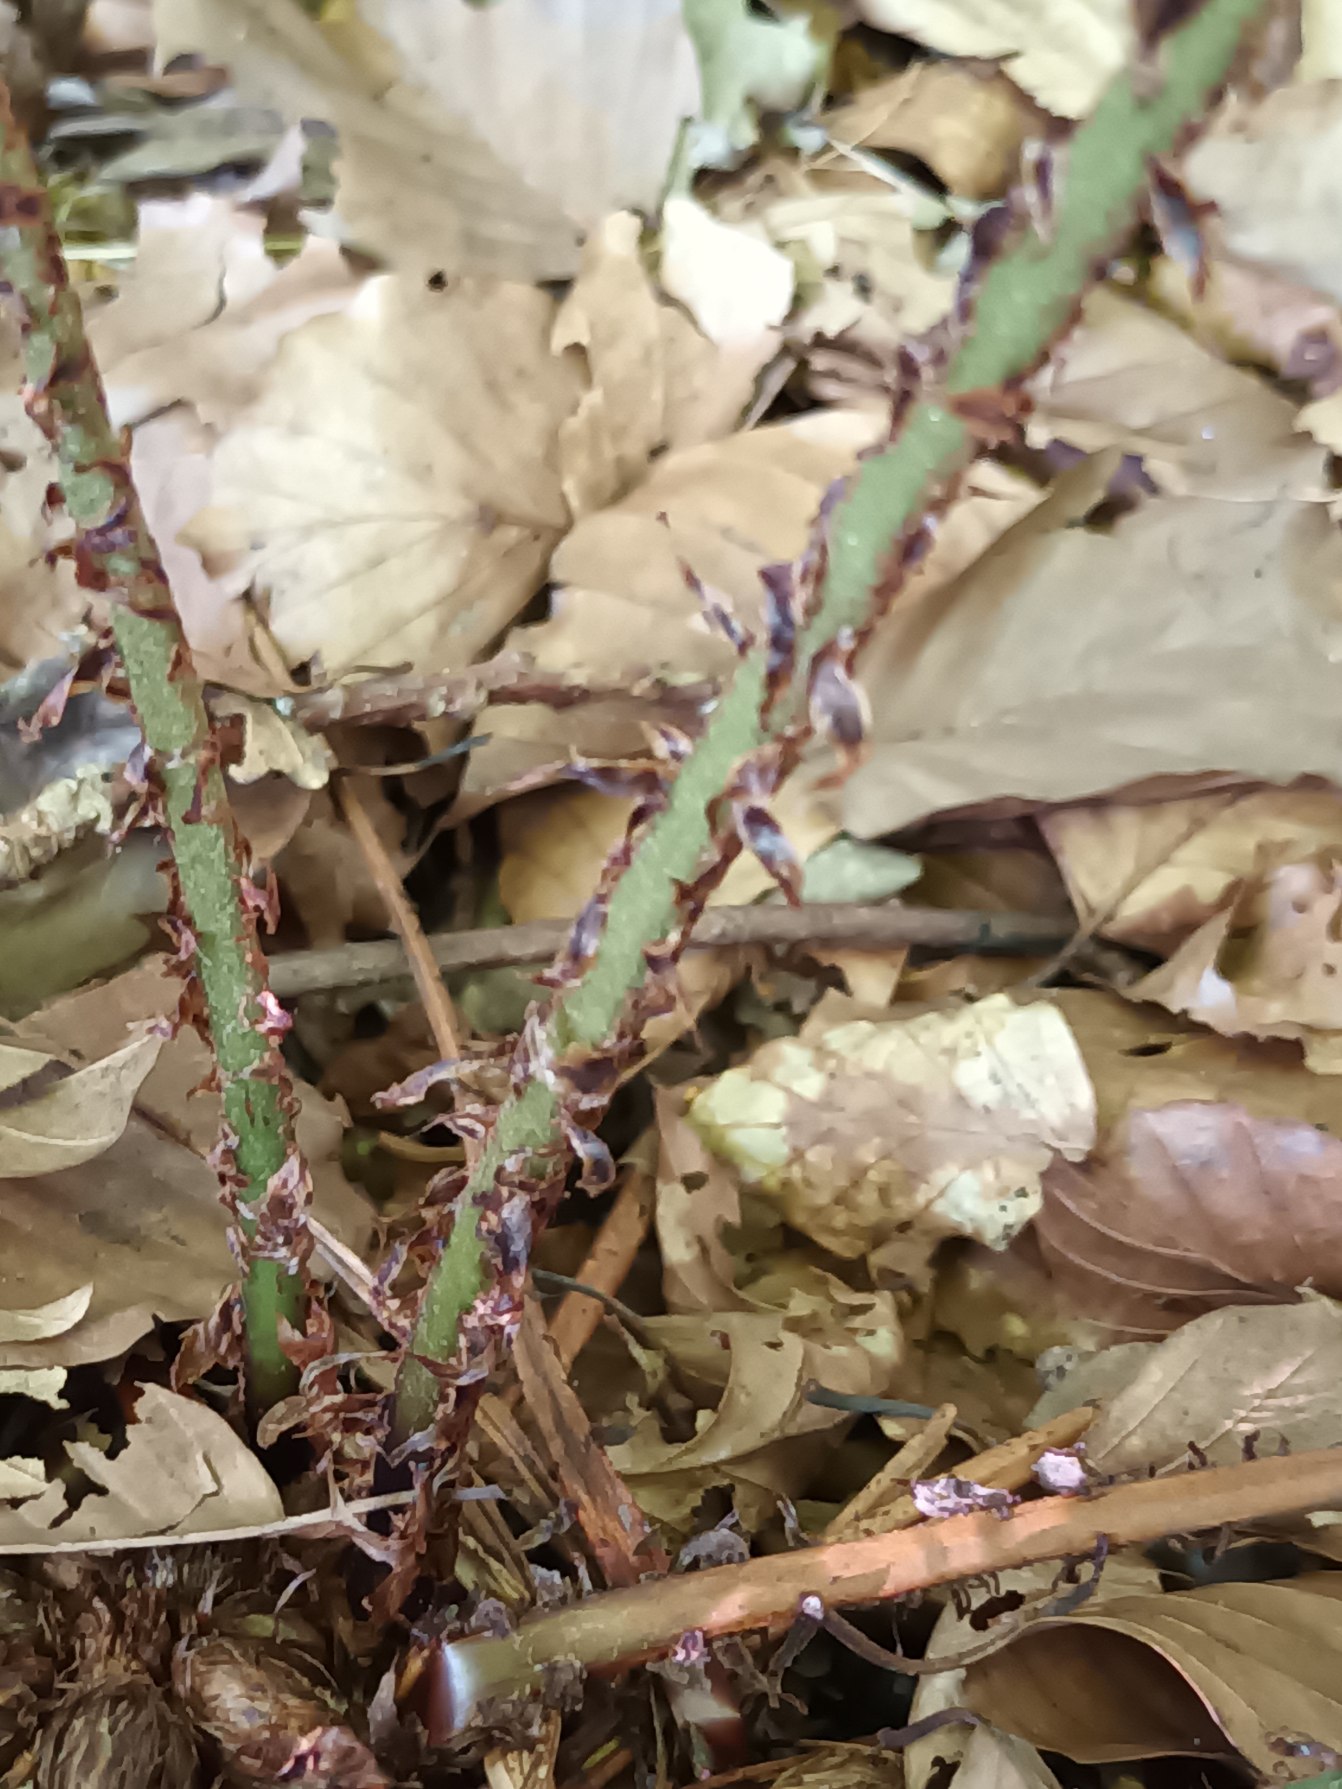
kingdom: Plantae
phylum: Tracheophyta
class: Polypodiopsida
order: Polypodiales
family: Dryopteridaceae
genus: Dryopteris
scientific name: Dryopteris dilatata
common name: Bredbladet mangeløv
